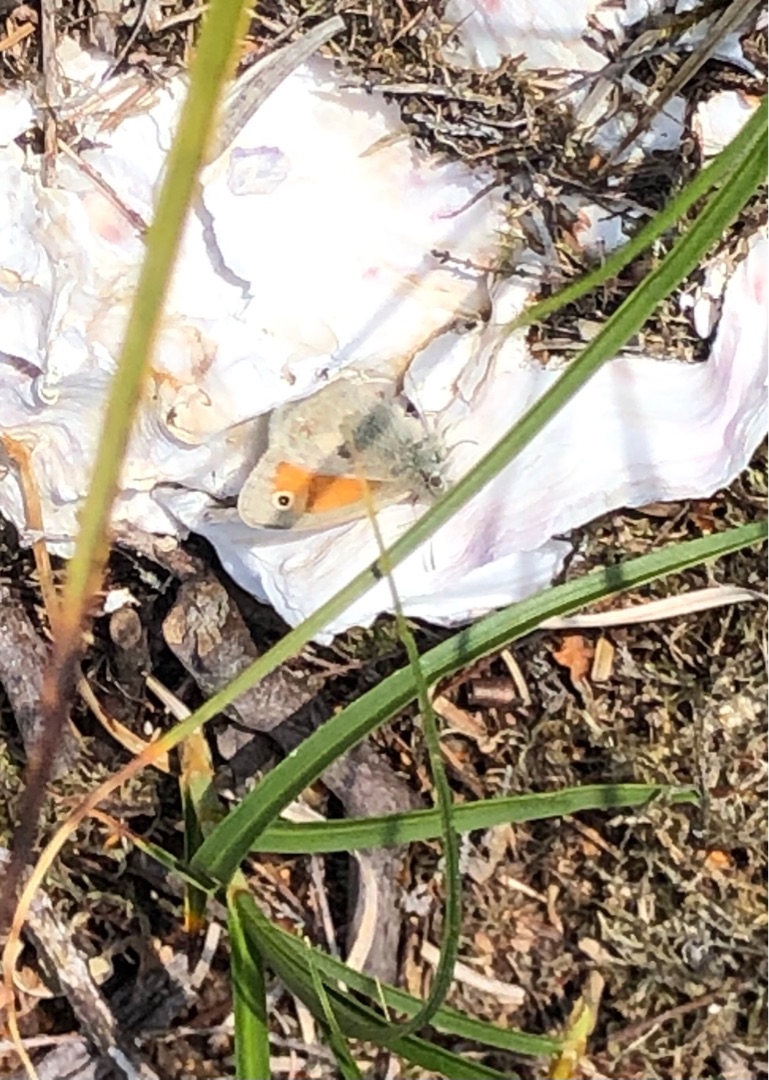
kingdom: Animalia
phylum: Arthropoda
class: Insecta
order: Lepidoptera
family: Nymphalidae
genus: Coenonympha
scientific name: Coenonympha pamphilus
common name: Okkergul randøje
